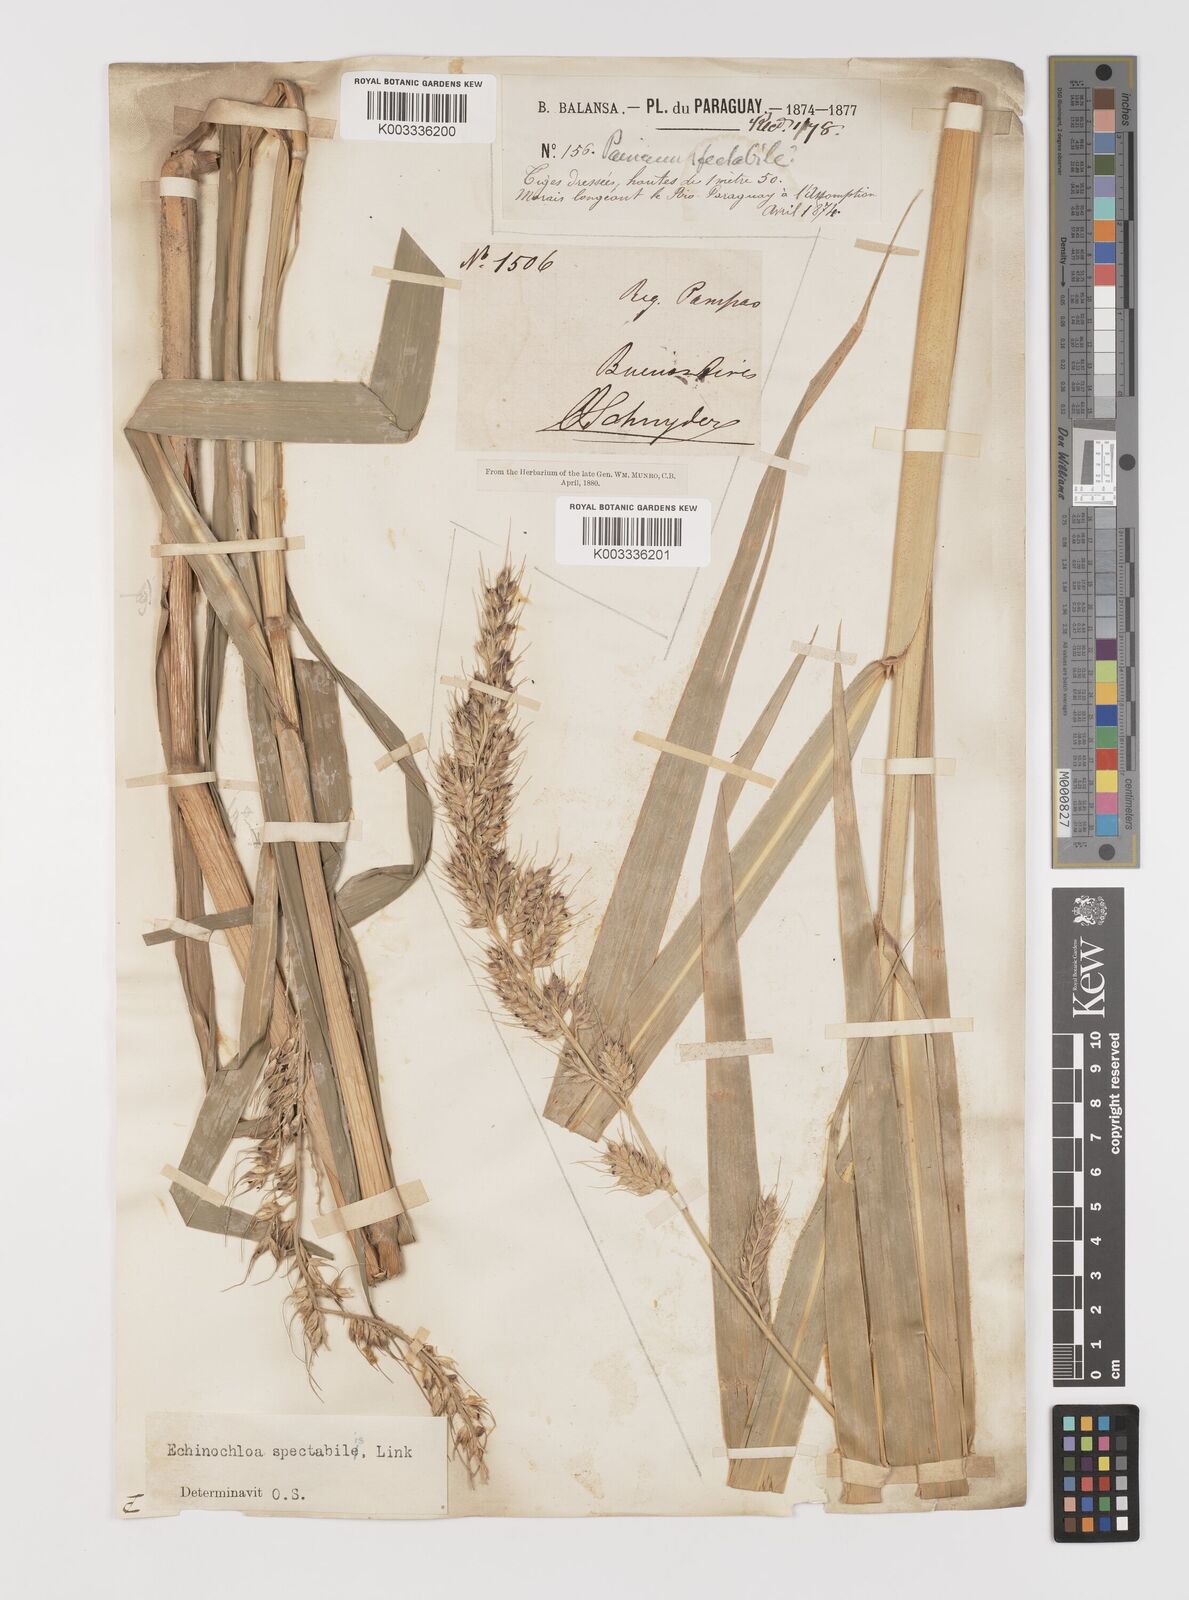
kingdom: Plantae
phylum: Tracheophyta
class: Liliopsida
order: Poales
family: Poaceae
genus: Echinochloa
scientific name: Echinochloa polystachya
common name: Creeping river grass
